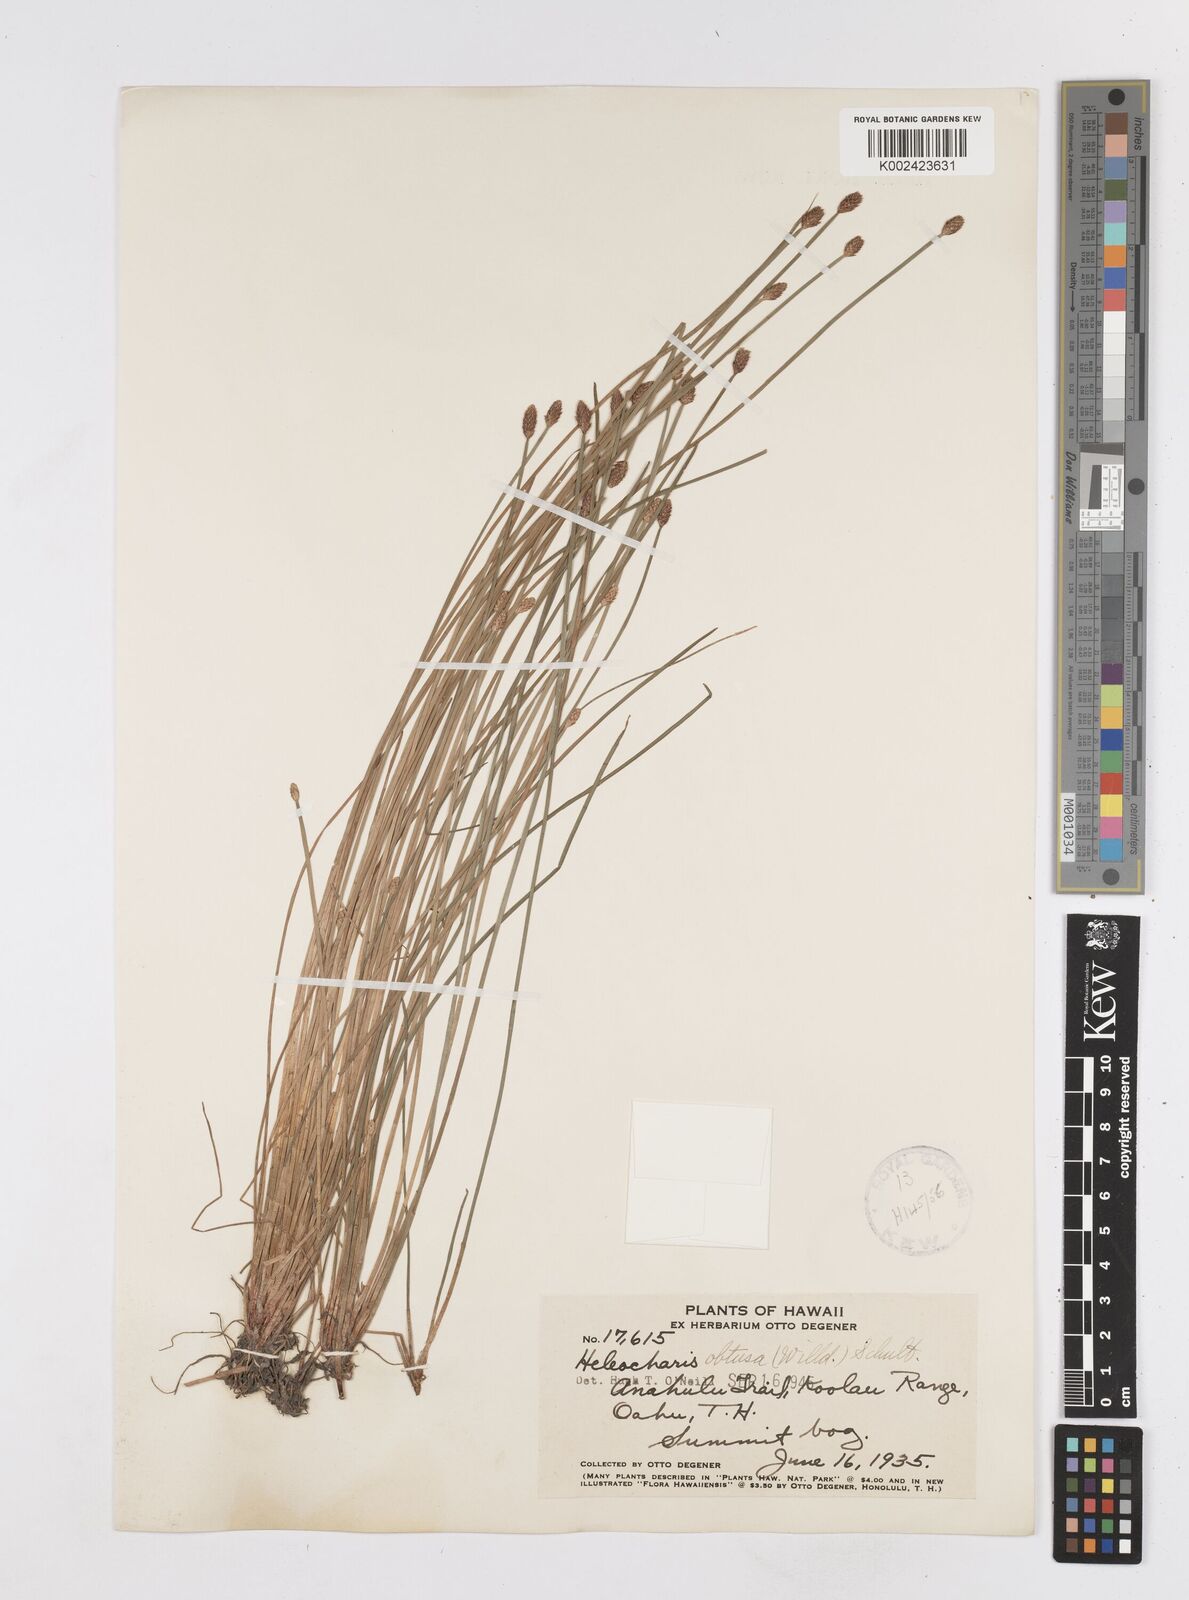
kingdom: Plantae
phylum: Tracheophyta
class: Liliopsida
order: Poales
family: Cyperaceae
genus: Eleocharis
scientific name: Eleocharis obtusa
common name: Blunt spikerush
